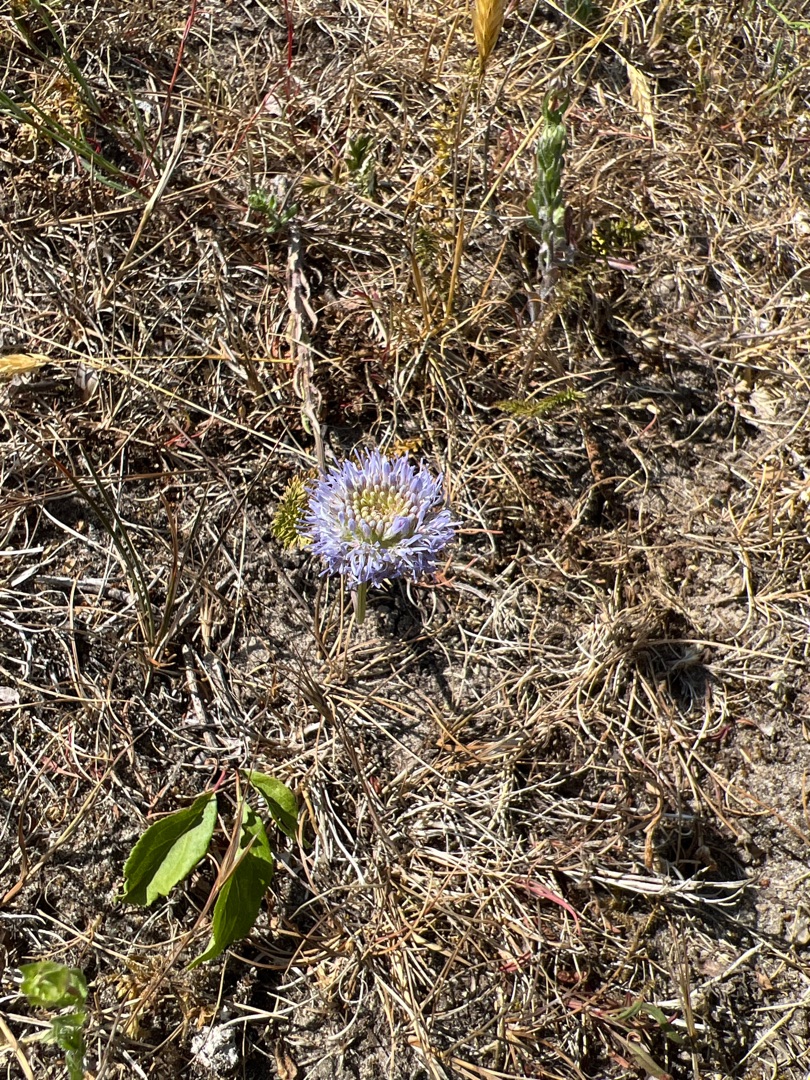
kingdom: Plantae
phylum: Tracheophyta
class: Magnoliopsida
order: Asterales
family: Campanulaceae
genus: Jasione
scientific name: Jasione montana
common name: Blåmunke
